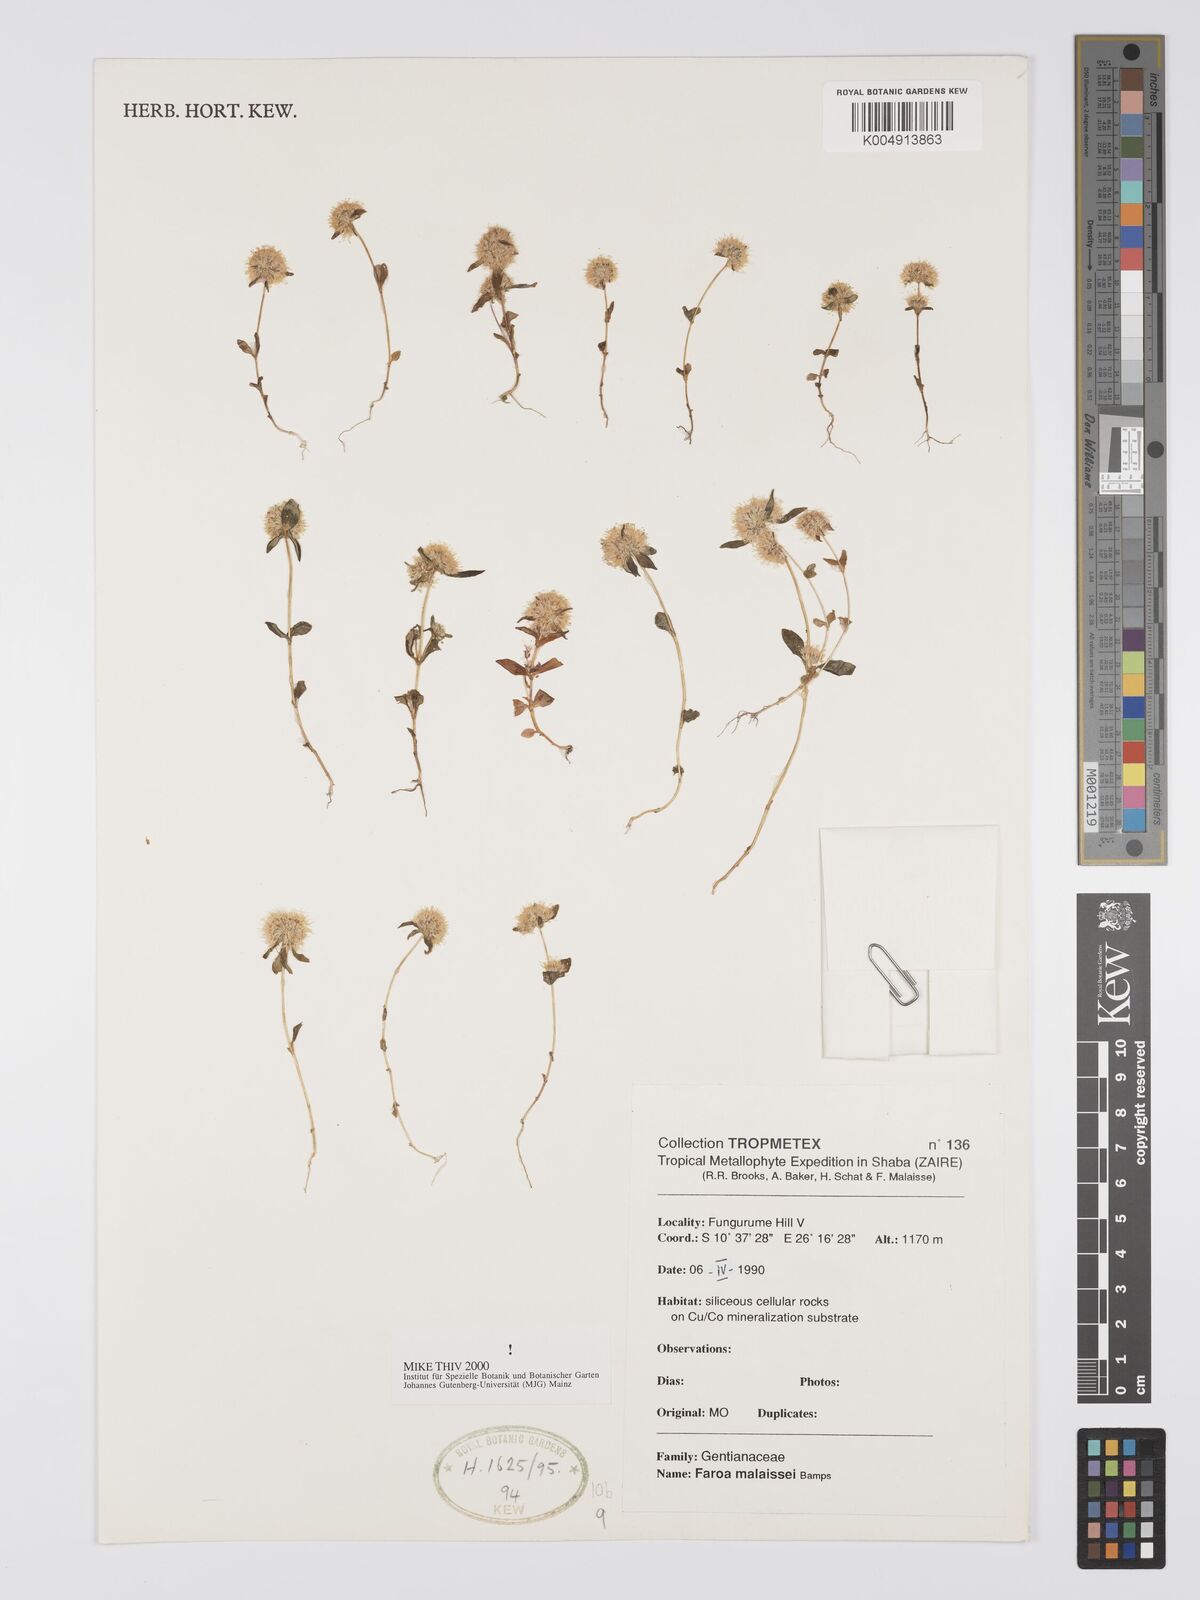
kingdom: Plantae
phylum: Tracheophyta
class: Magnoliopsida
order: Gentianales
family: Gentianaceae
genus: Faroa
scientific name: Faroa malaissei
